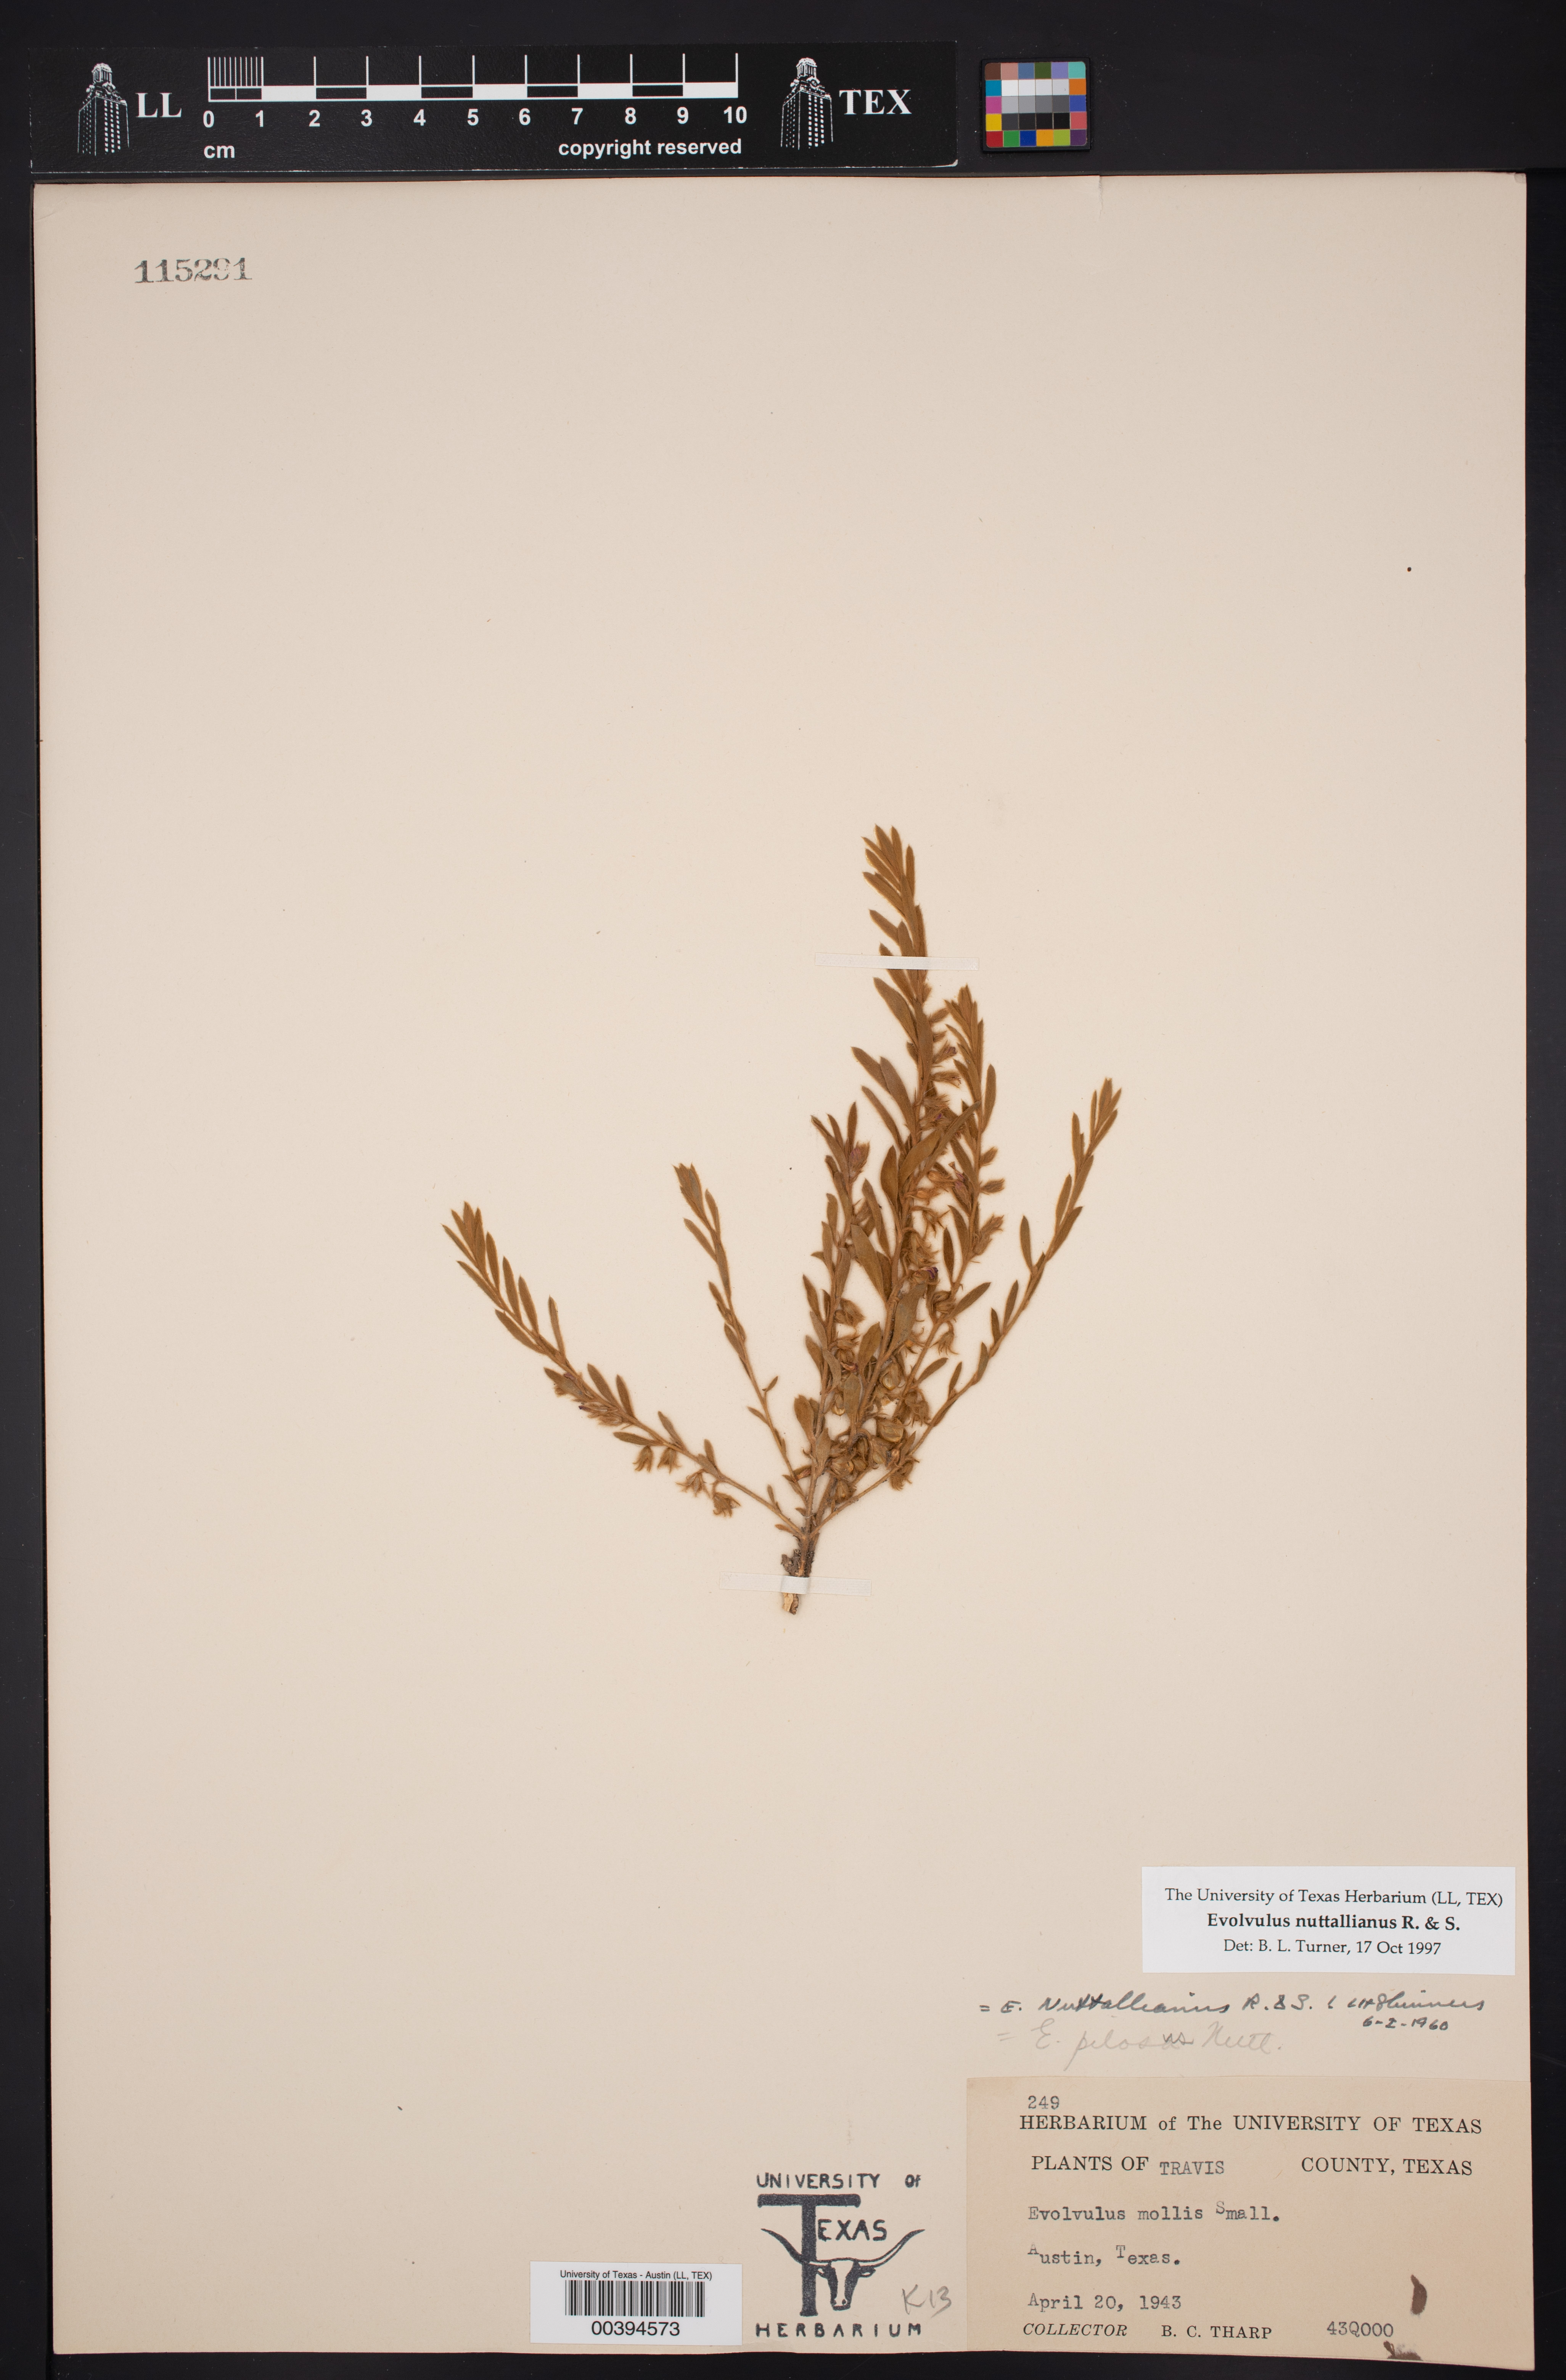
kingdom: Plantae
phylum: Tracheophyta
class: Magnoliopsida
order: Solanales
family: Convolvulaceae
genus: Evolvulus
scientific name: Evolvulus nuttallianus
